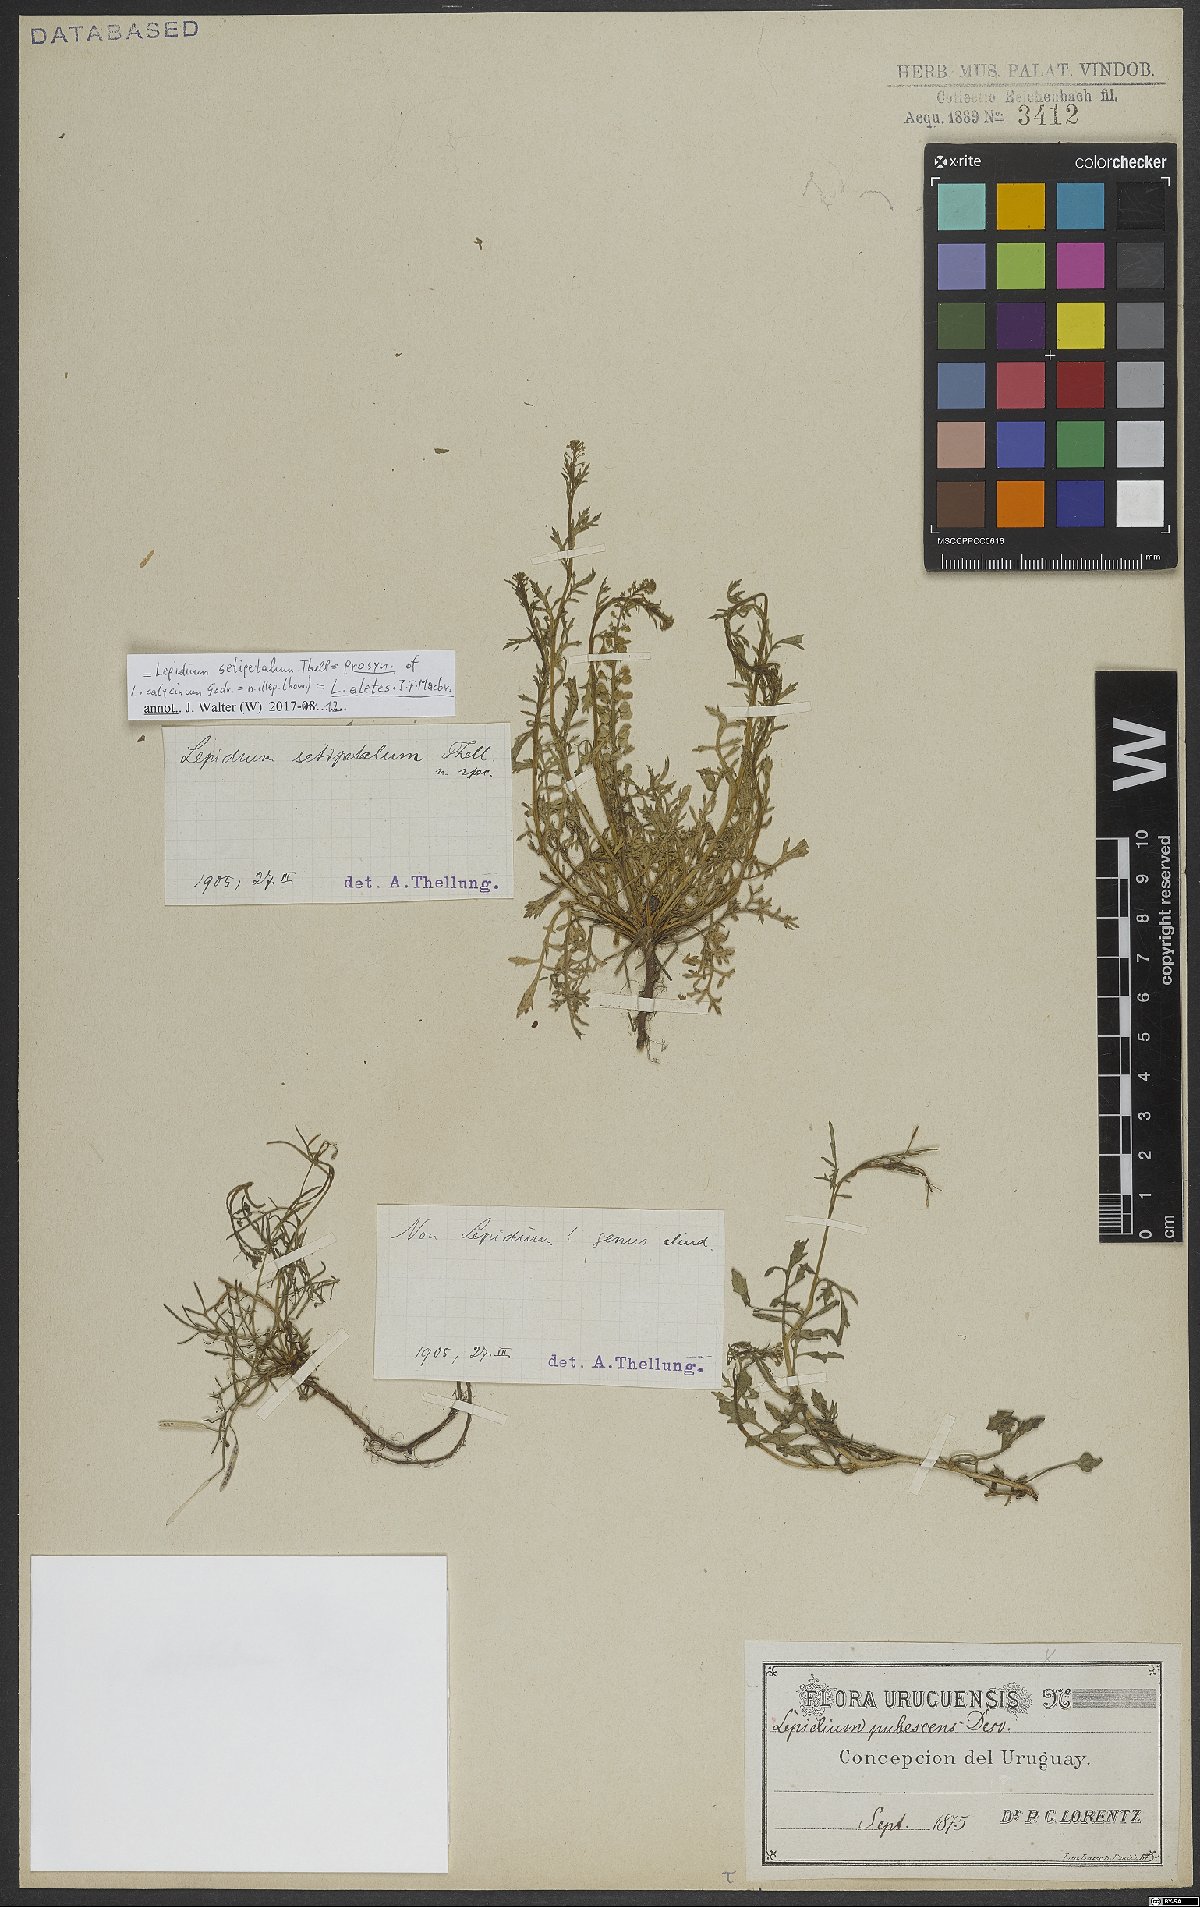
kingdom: Plantae
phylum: Tracheophyta
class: Magnoliopsida
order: Brassicales
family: Brassicaceae
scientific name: Brassicaceae
